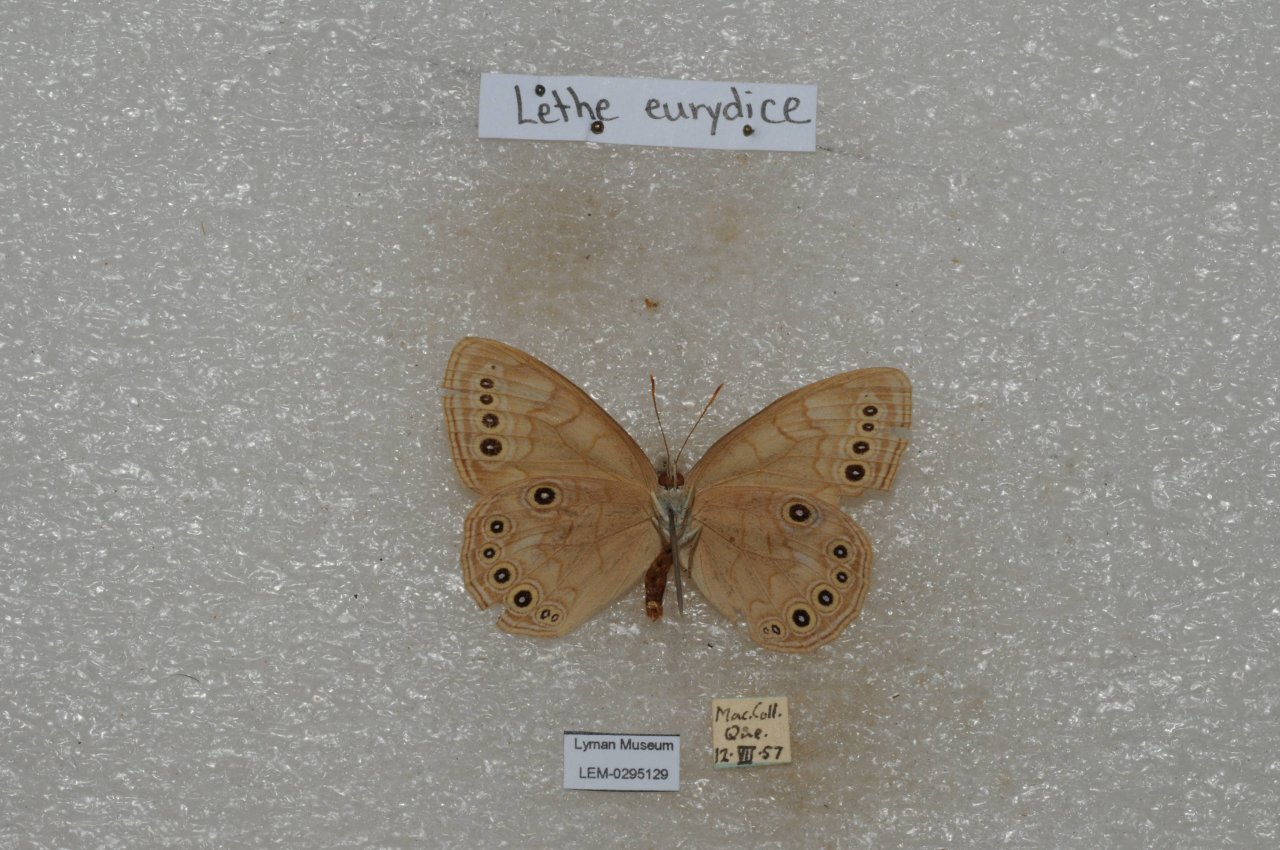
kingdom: Animalia
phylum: Arthropoda
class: Insecta
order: Lepidoptera
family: Nymphalidae
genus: Lethe
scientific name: Lethe eurydice
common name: Eyed Brown
